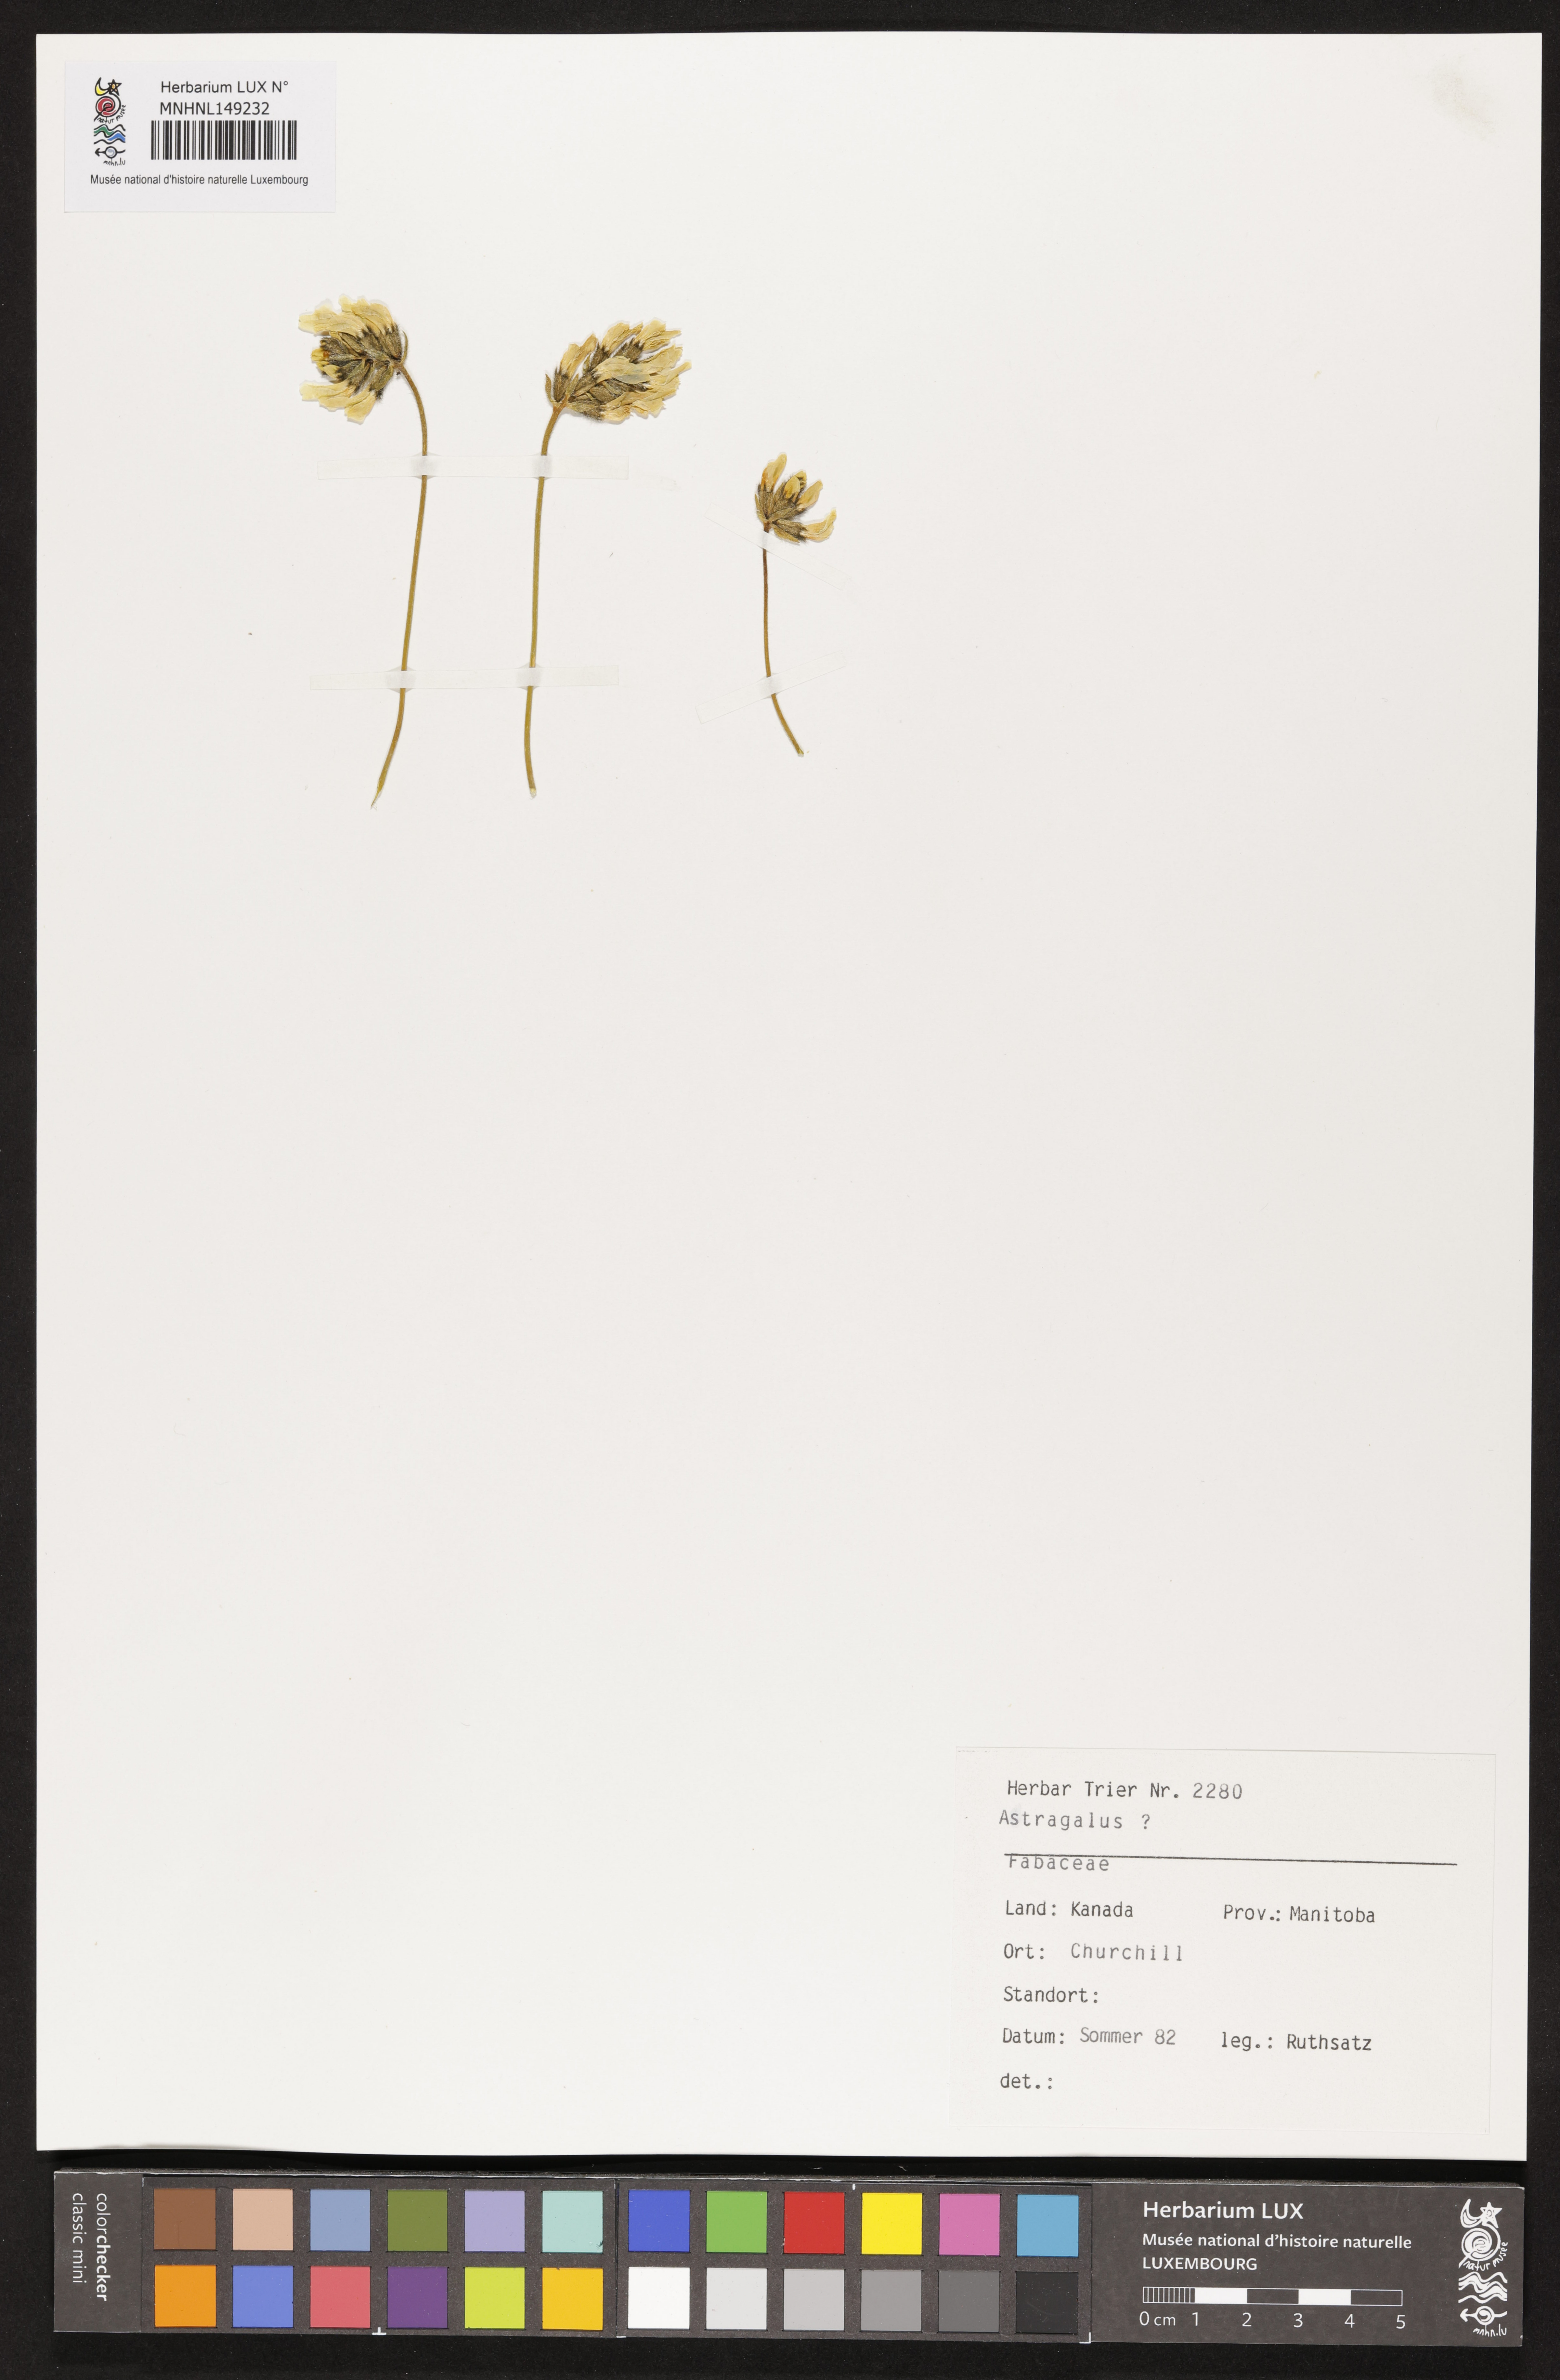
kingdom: Plantae
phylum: Tracheophyta
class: Magnoliopsida
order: Fabales
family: Fabaceae
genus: Astragalus
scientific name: Astragalus
